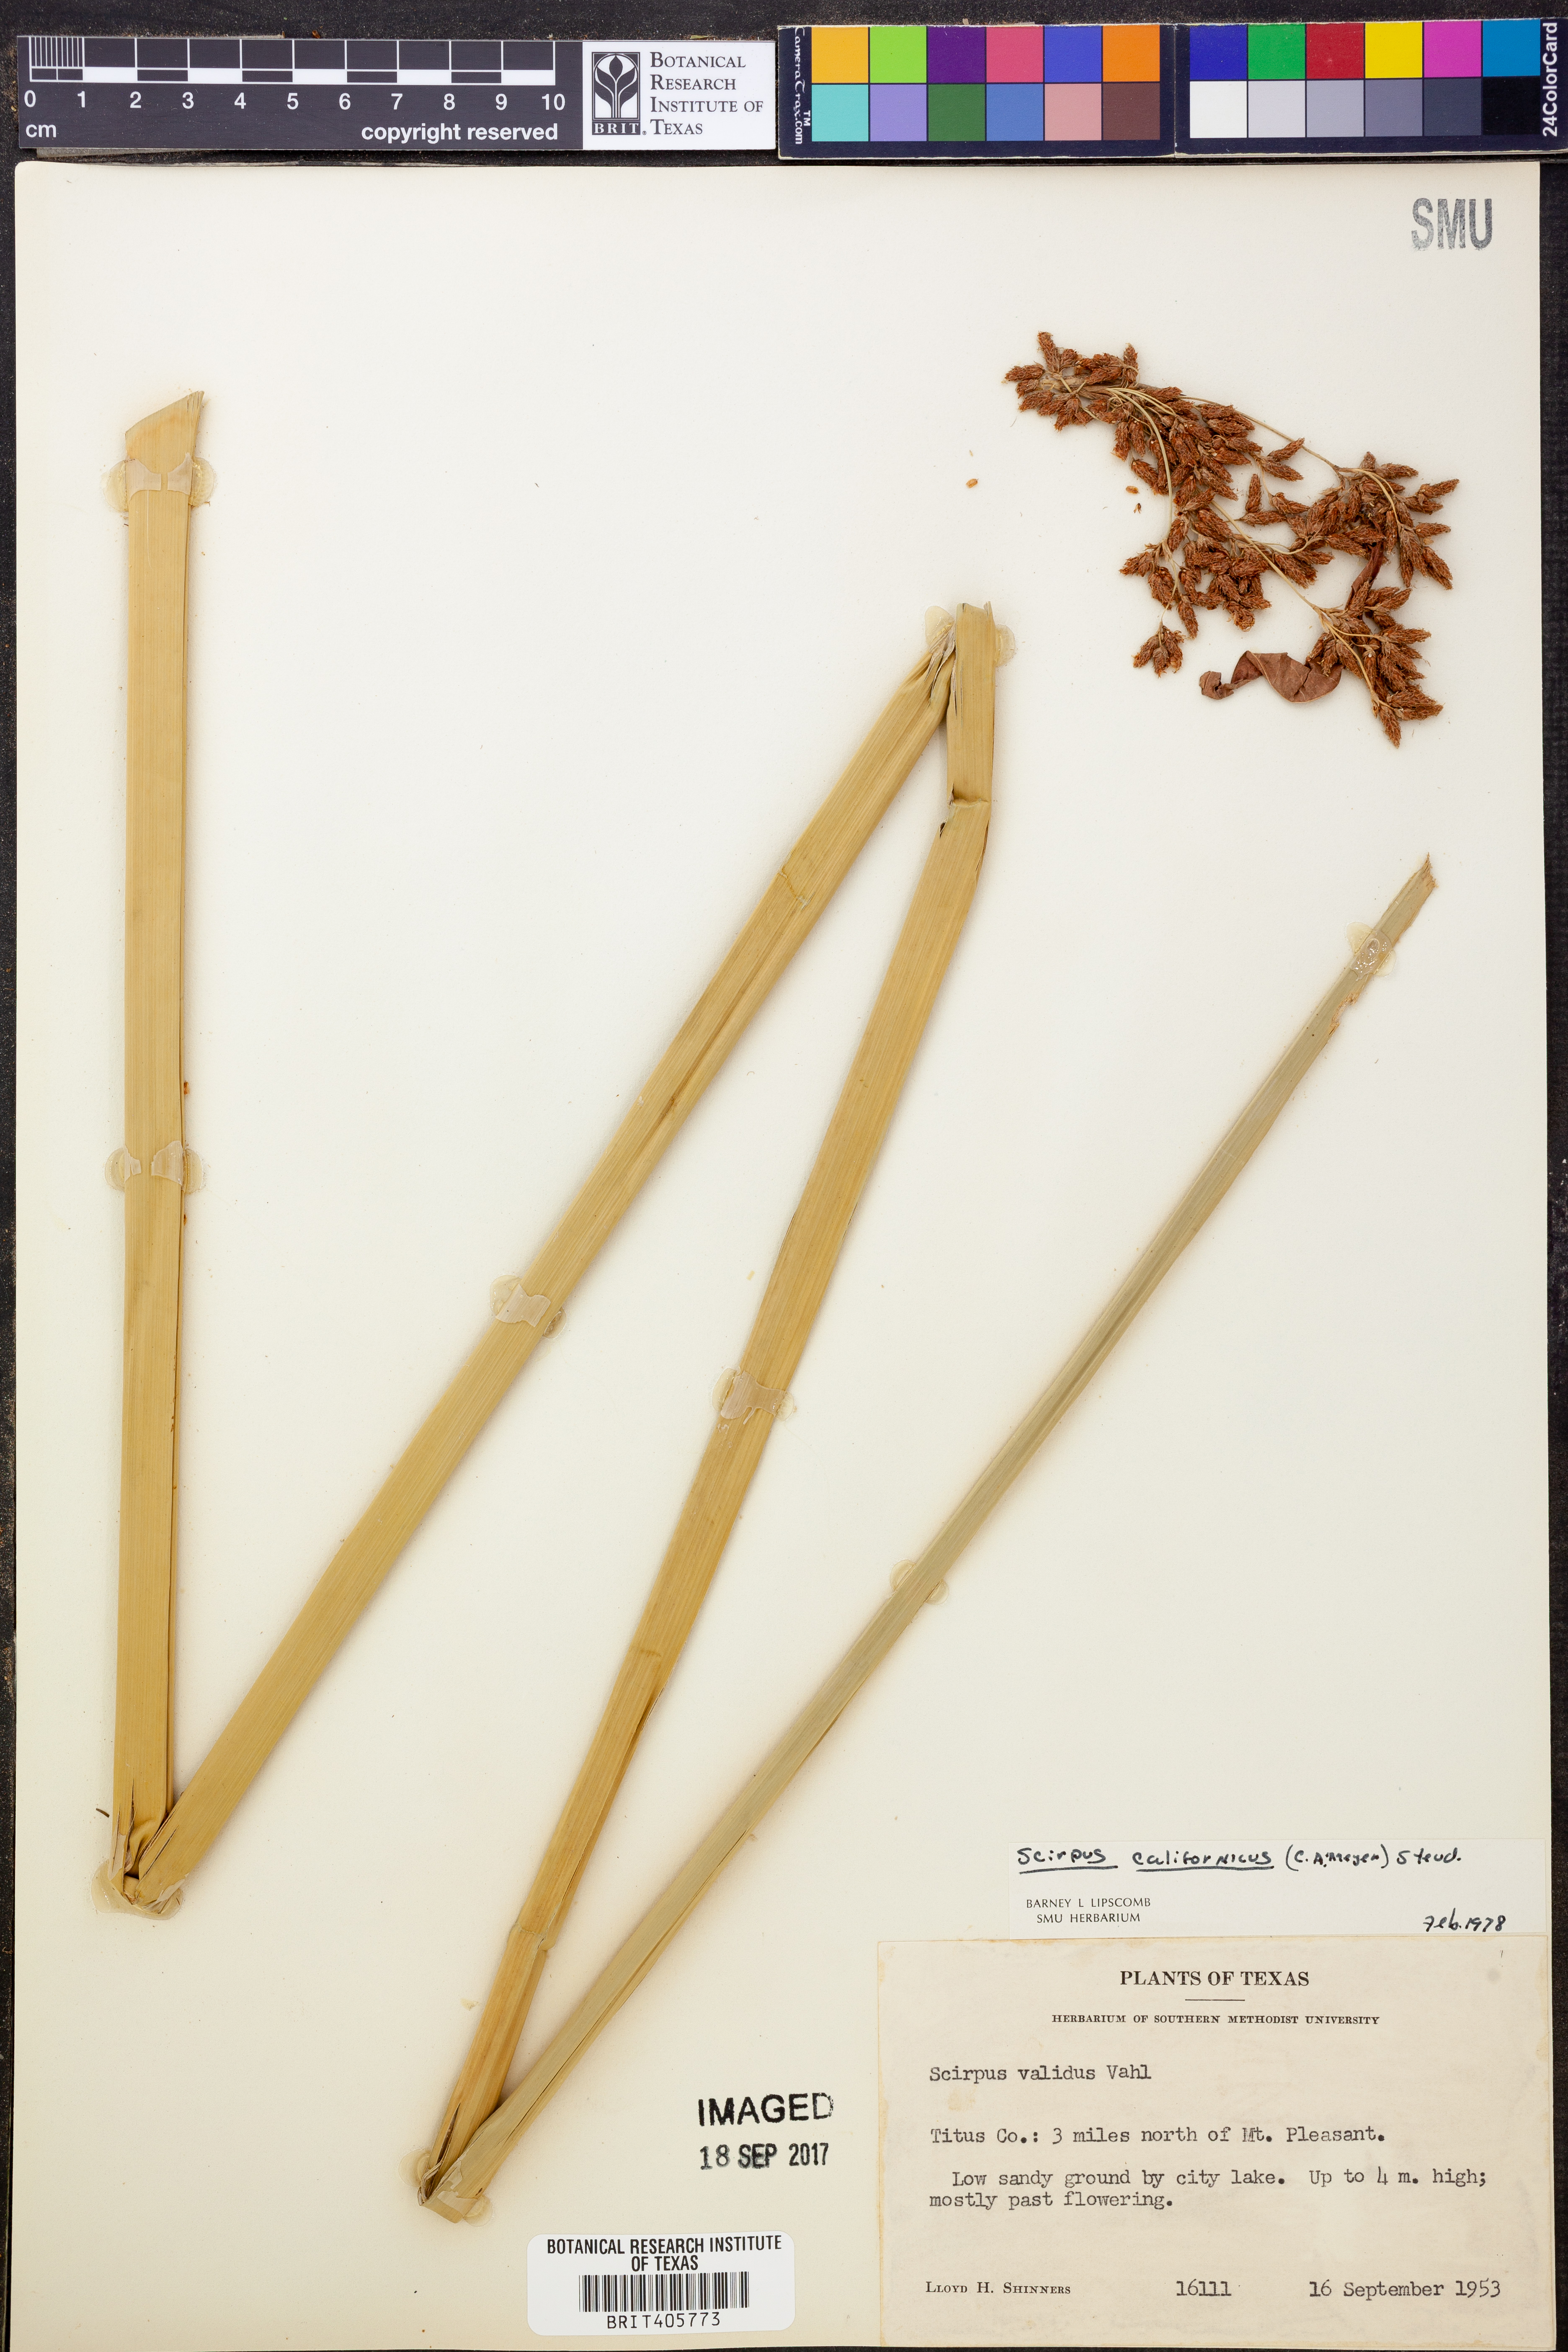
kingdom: Plantae
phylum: Tracheophyta
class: Liliopsida
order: Poales
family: Cyperaceae
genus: Schoenoplectus
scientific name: Schoenoplectus californicus
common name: California bulrush
